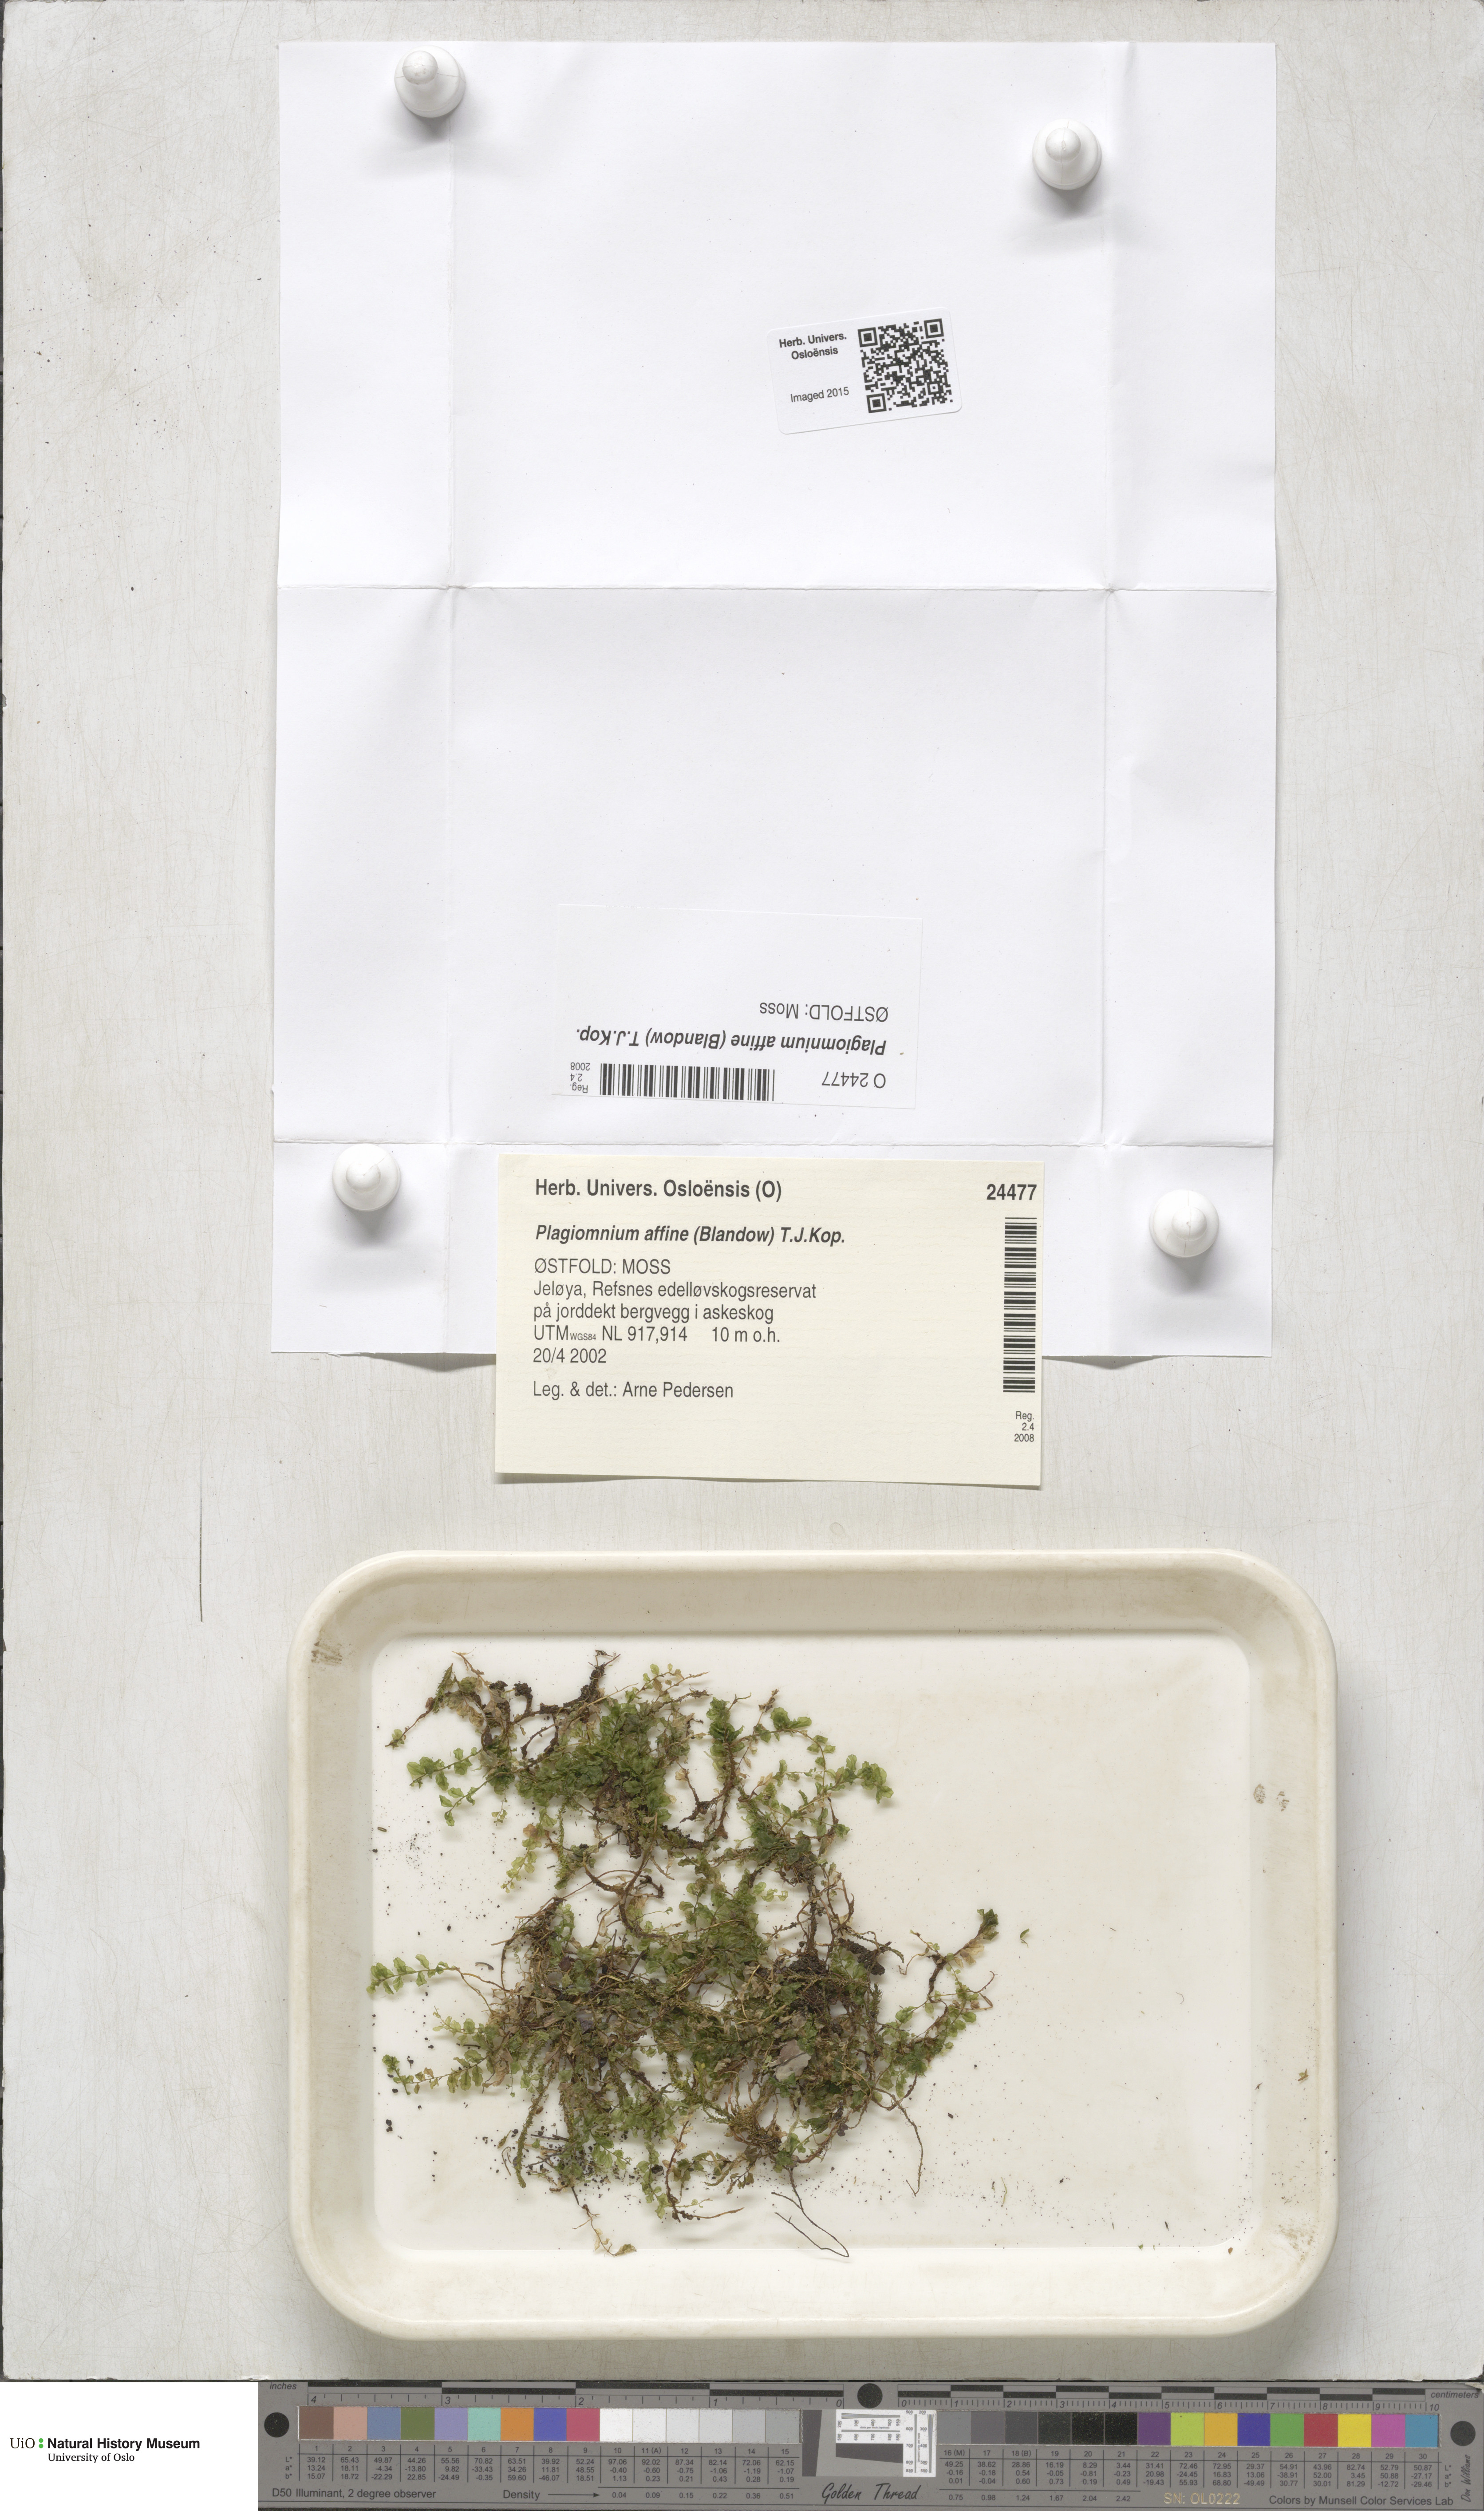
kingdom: Plantae
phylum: Bryophyta
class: Bryopsida
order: Bryales
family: Mniaceae
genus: Plagiomnium
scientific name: Plagiomnium affine
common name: Many-fruited thyme-moss
